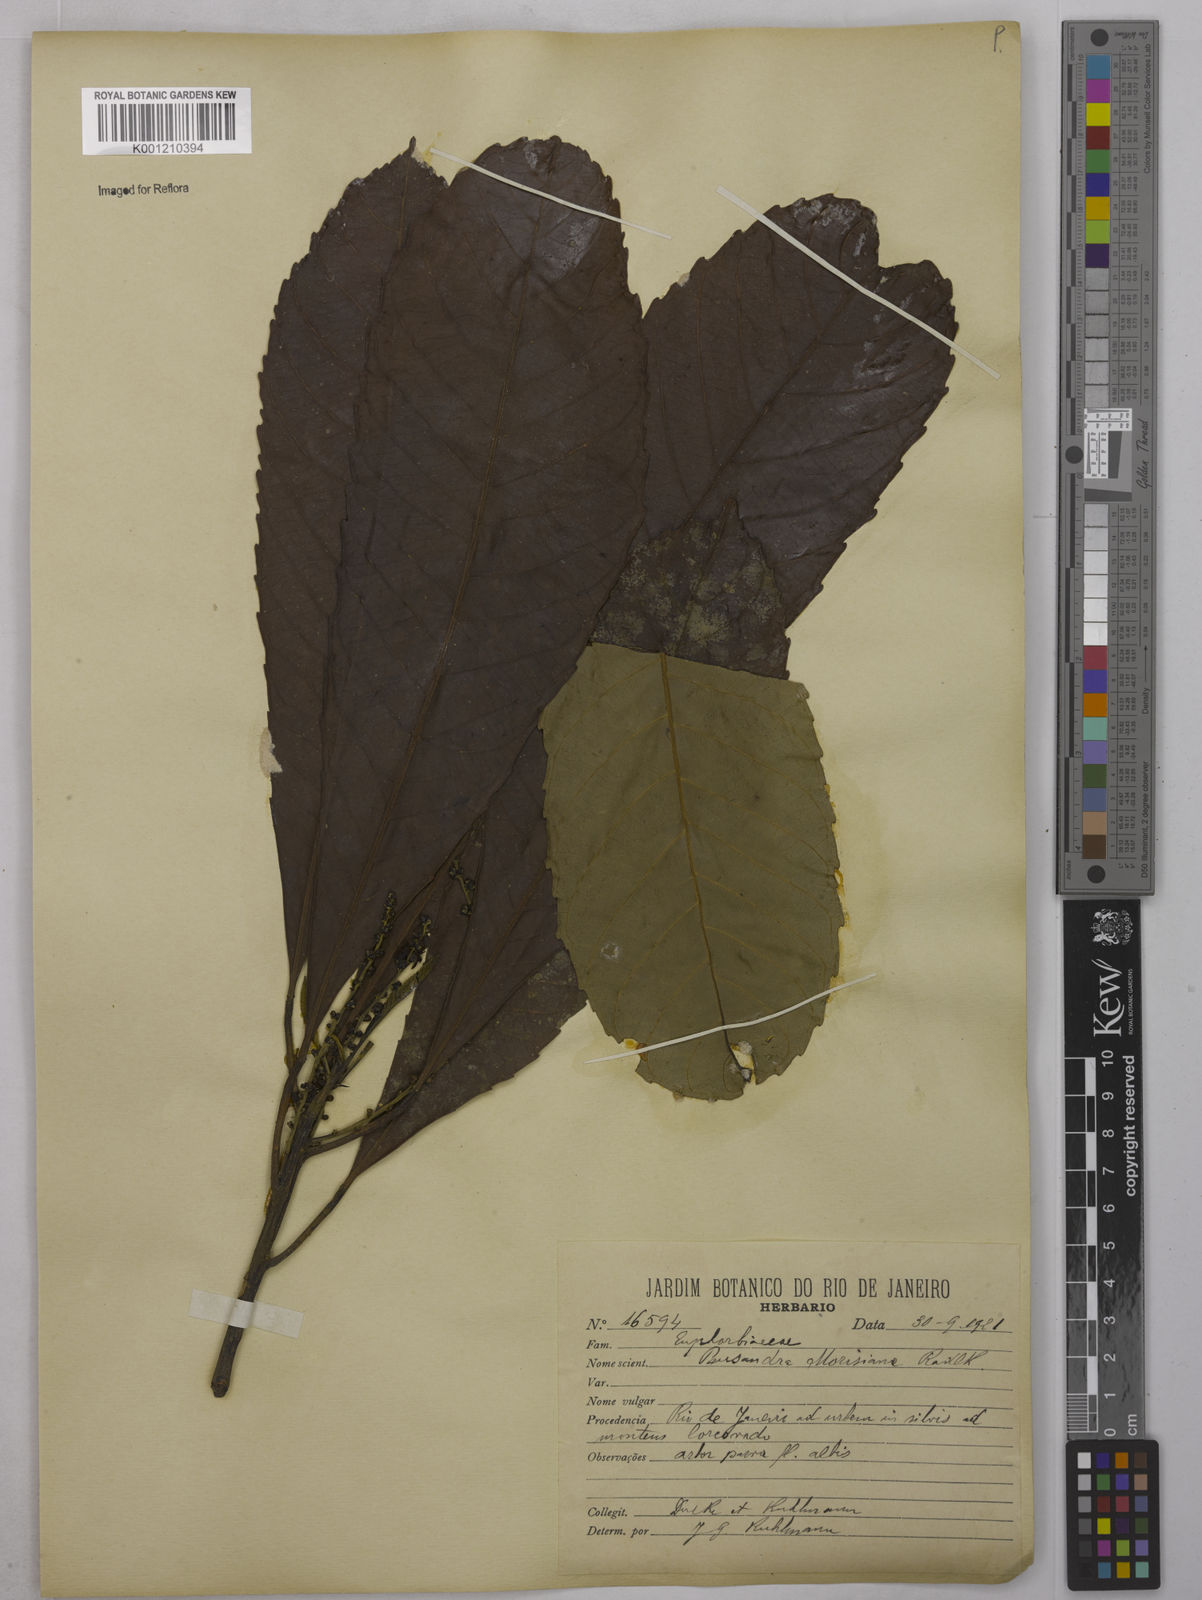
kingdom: Plantae
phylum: Tracheophyta
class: Magnoliopsida
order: Malpighiales
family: Euphorbiaceae
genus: Pausandra
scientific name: Pausandra morisiana
